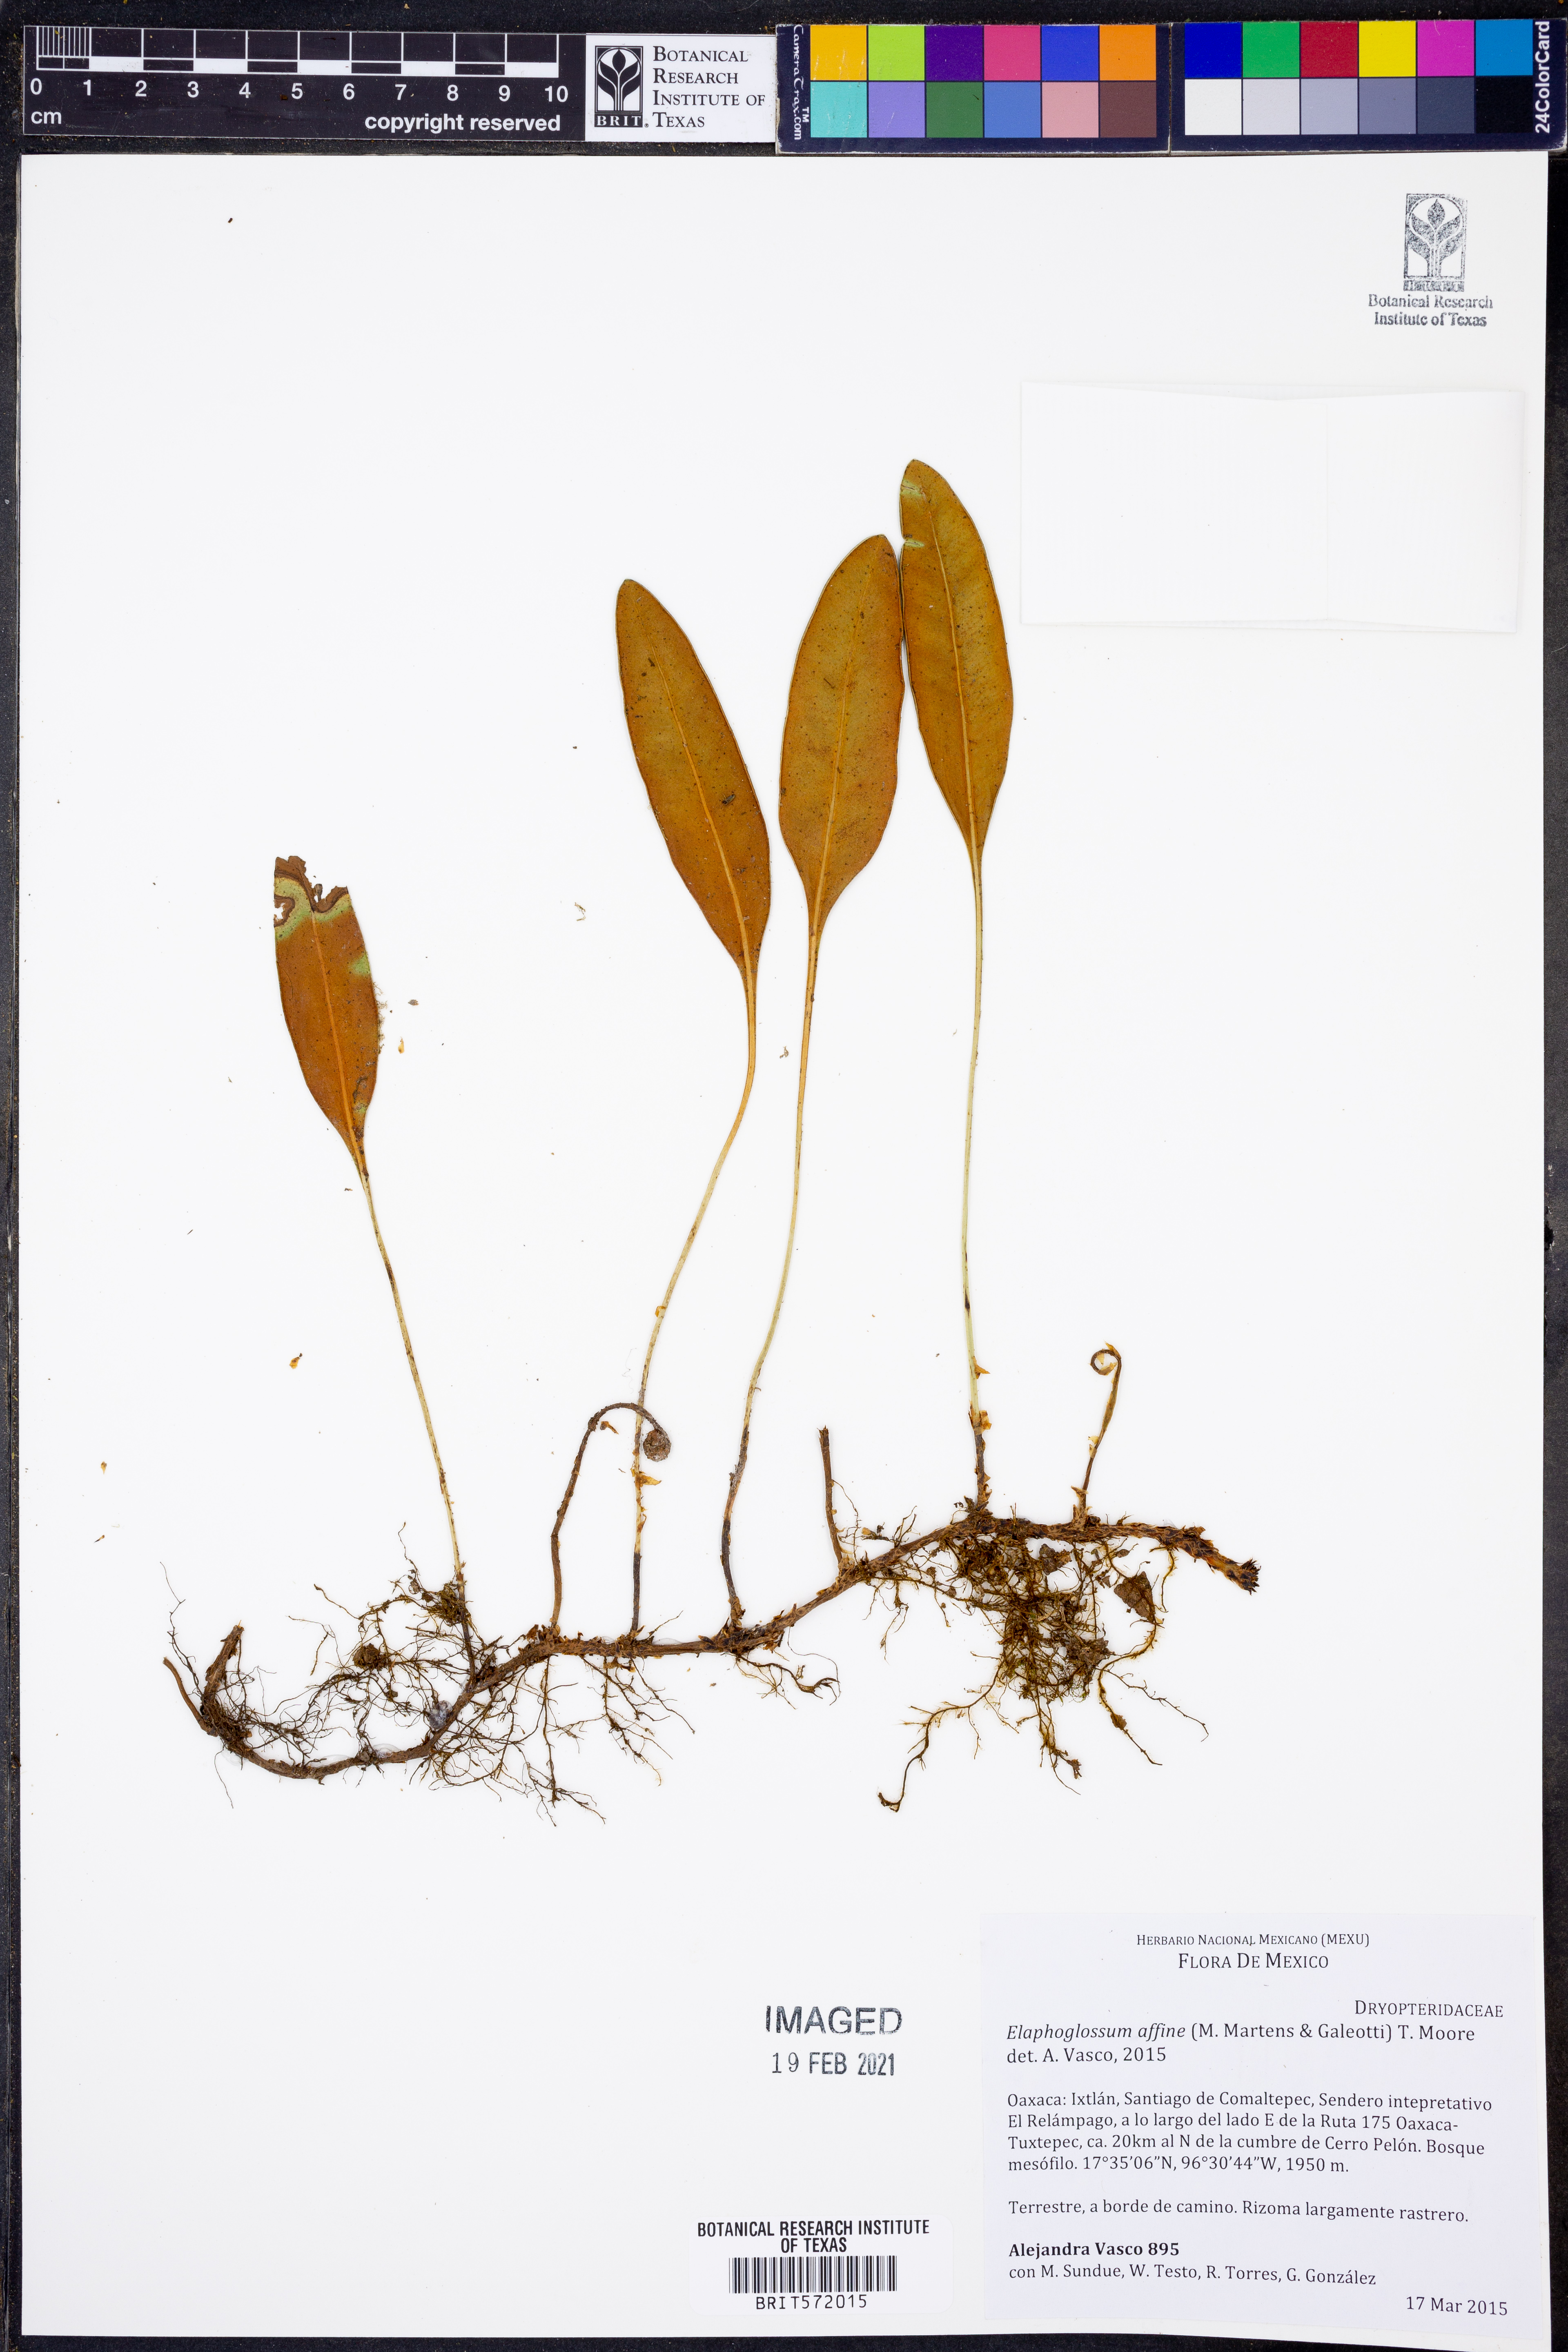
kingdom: Plantae
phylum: Tracheophyta
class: Polypodiopsida
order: Polypodiales
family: Dryopteridaceae
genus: Elaphoglossum
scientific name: Elaphoglossum affine
